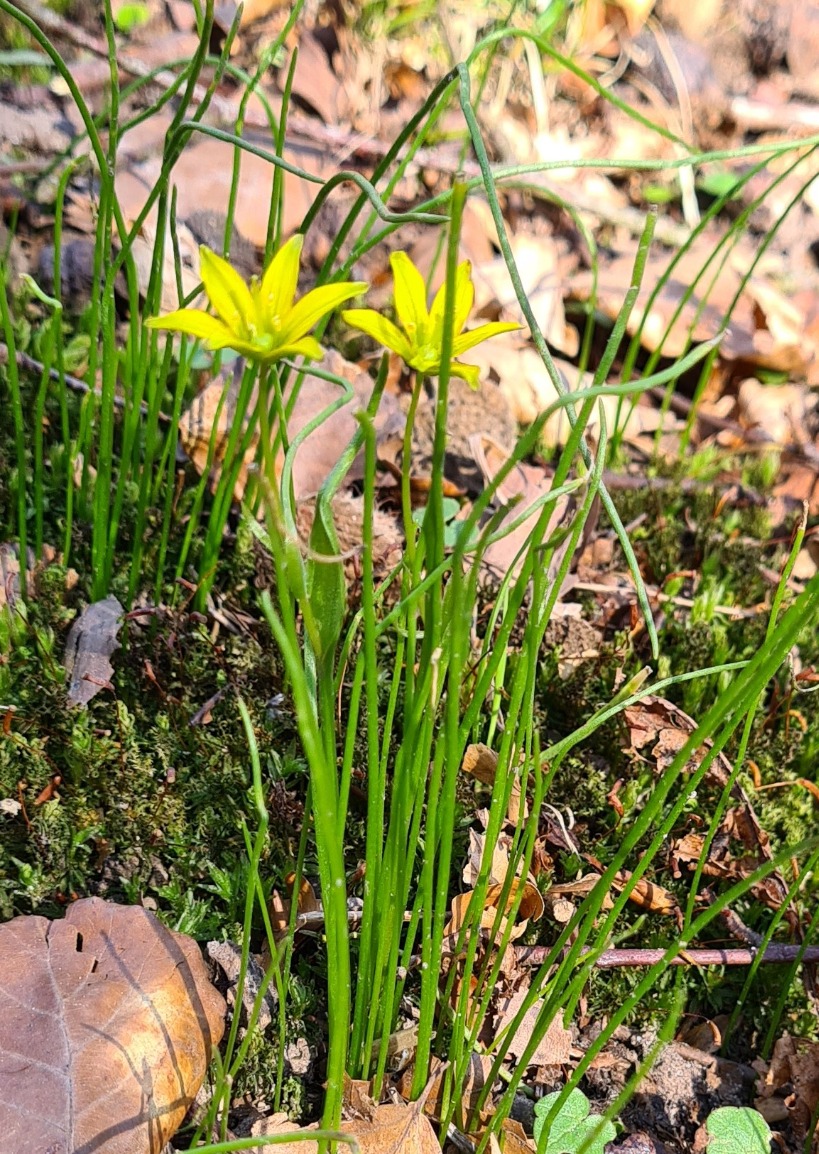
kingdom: Plantae
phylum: Tracheophyta
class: Liliopsida
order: Liliales
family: Liliaceae
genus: Gagea
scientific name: Gagea spathacea
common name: Hylster-guldstjerne
